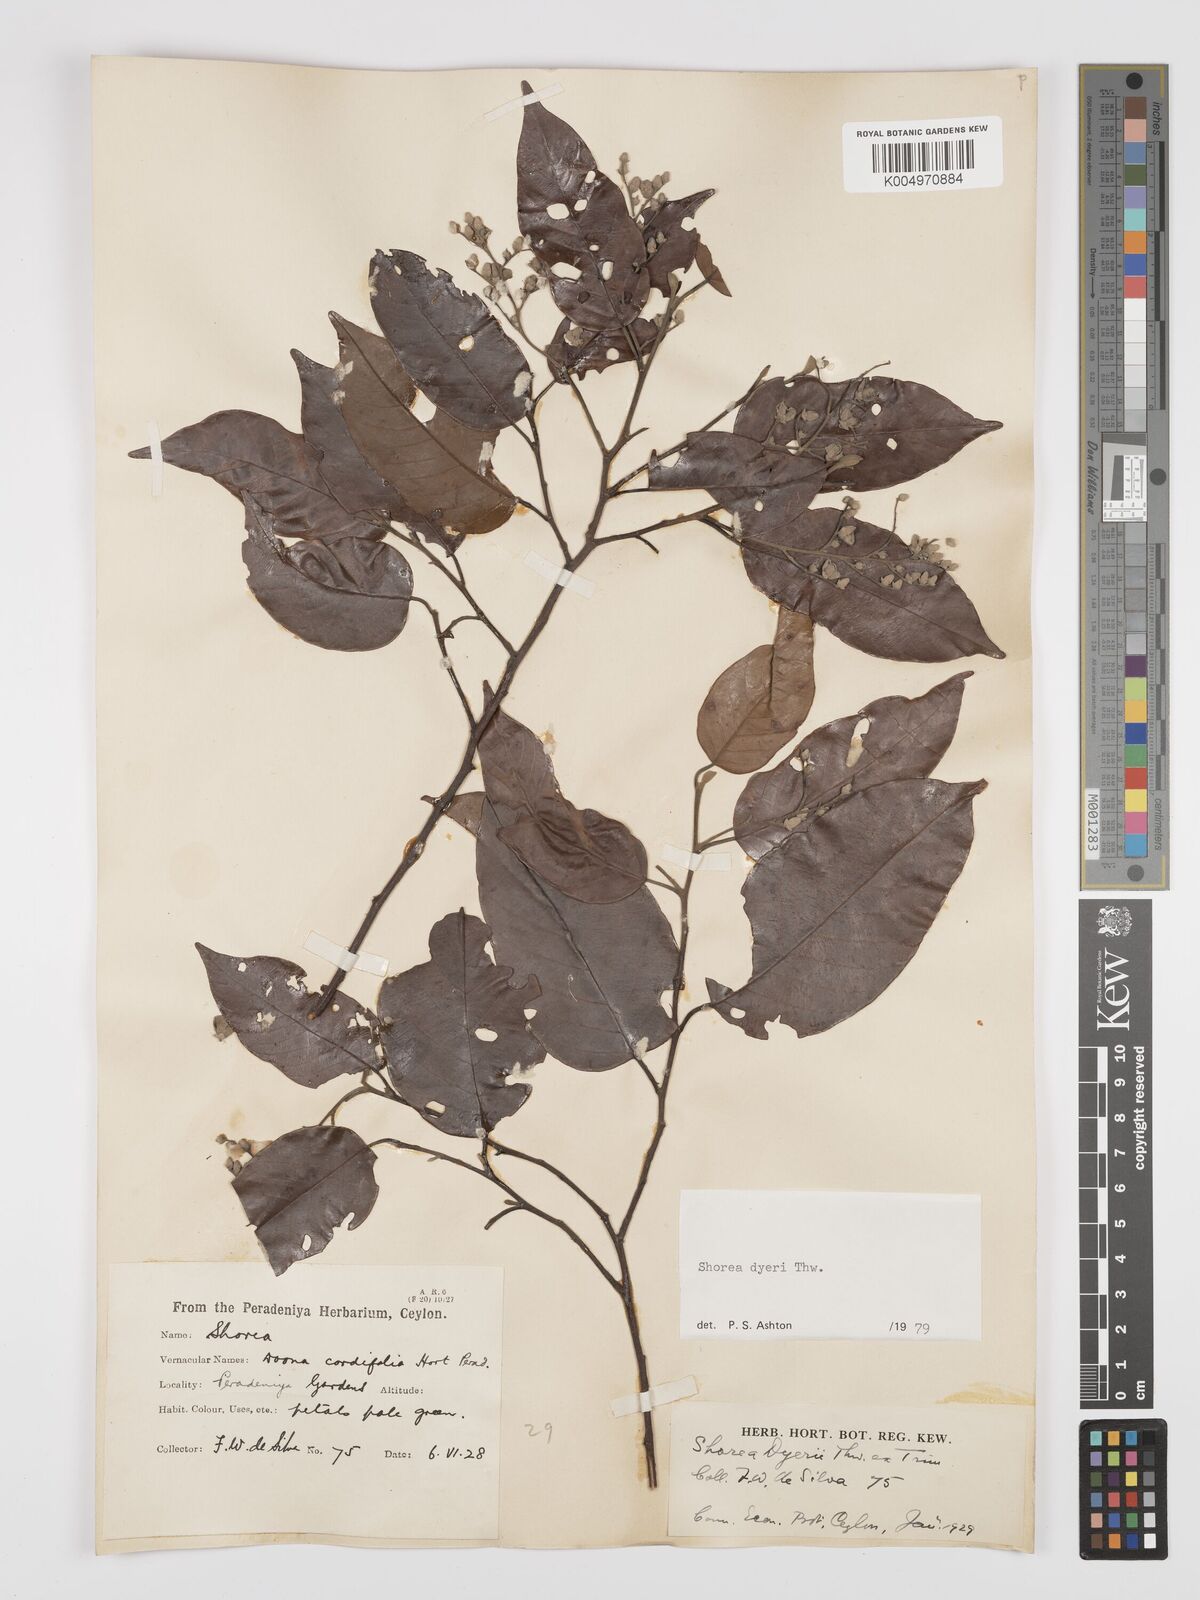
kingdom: Plantae
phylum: Tracheophyta
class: Magnoliopsida
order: Malvales
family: Dipterocarpaceae
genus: Shorea
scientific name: Shorea dyeri
